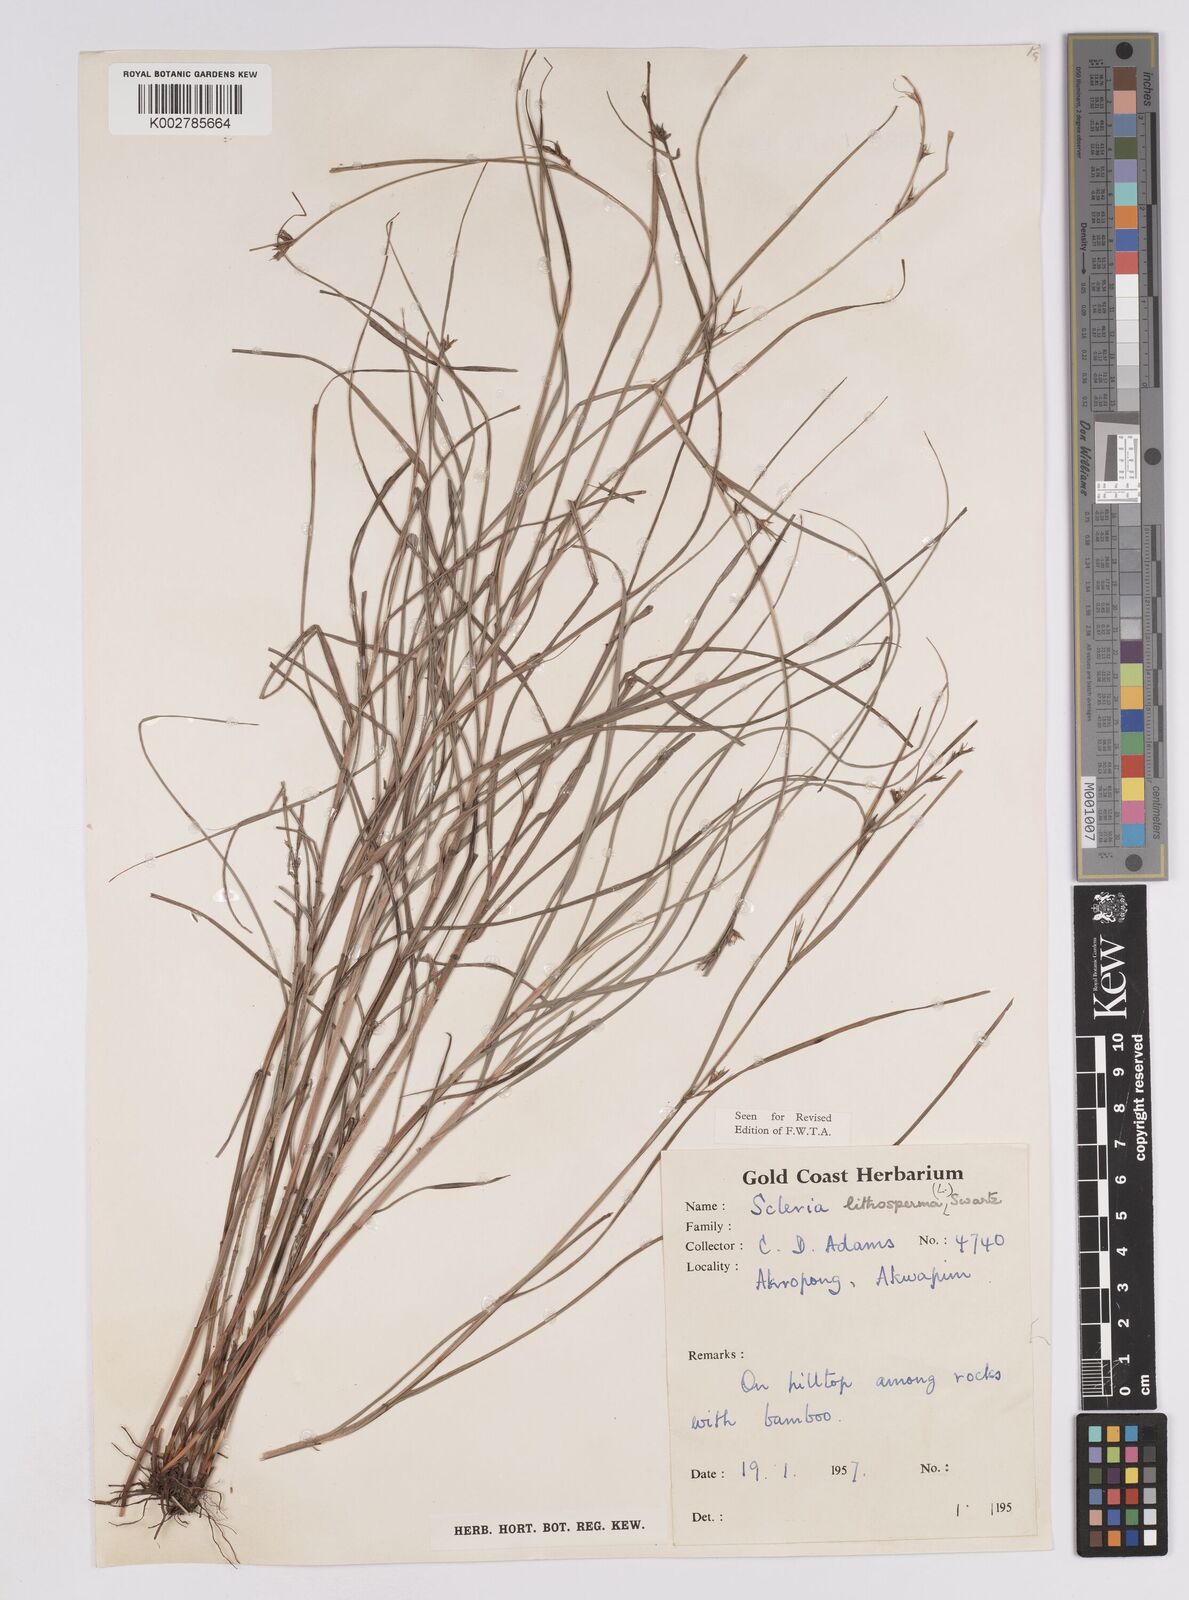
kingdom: Plantae
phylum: Tracheophyta
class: Liliopsida
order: Poales
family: Cyperaceae
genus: Scleria
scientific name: Scleria lithosperma
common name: Florida keys nut-rush
